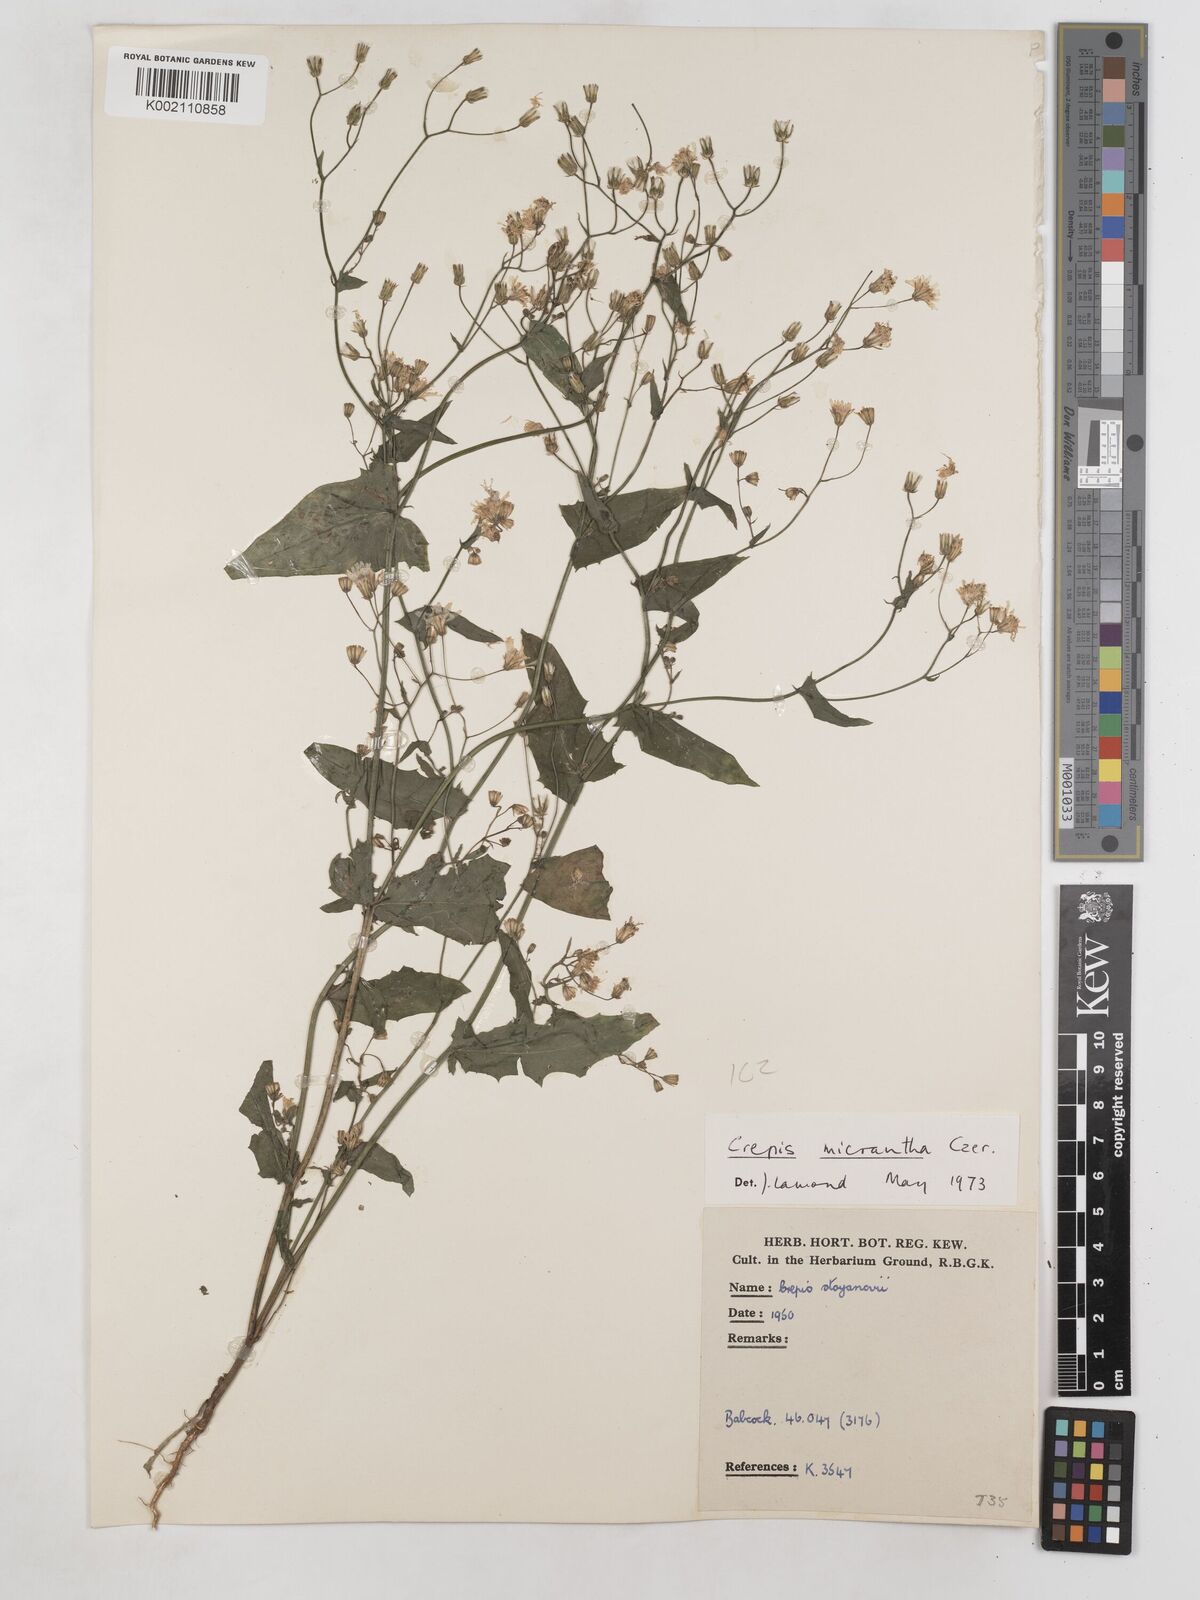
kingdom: Plantae
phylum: Tracheophyta
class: Magnoliopsida
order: Asterales
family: Asteraceae
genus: Crepis
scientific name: Crepis micrantha
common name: Hawk's-beard
